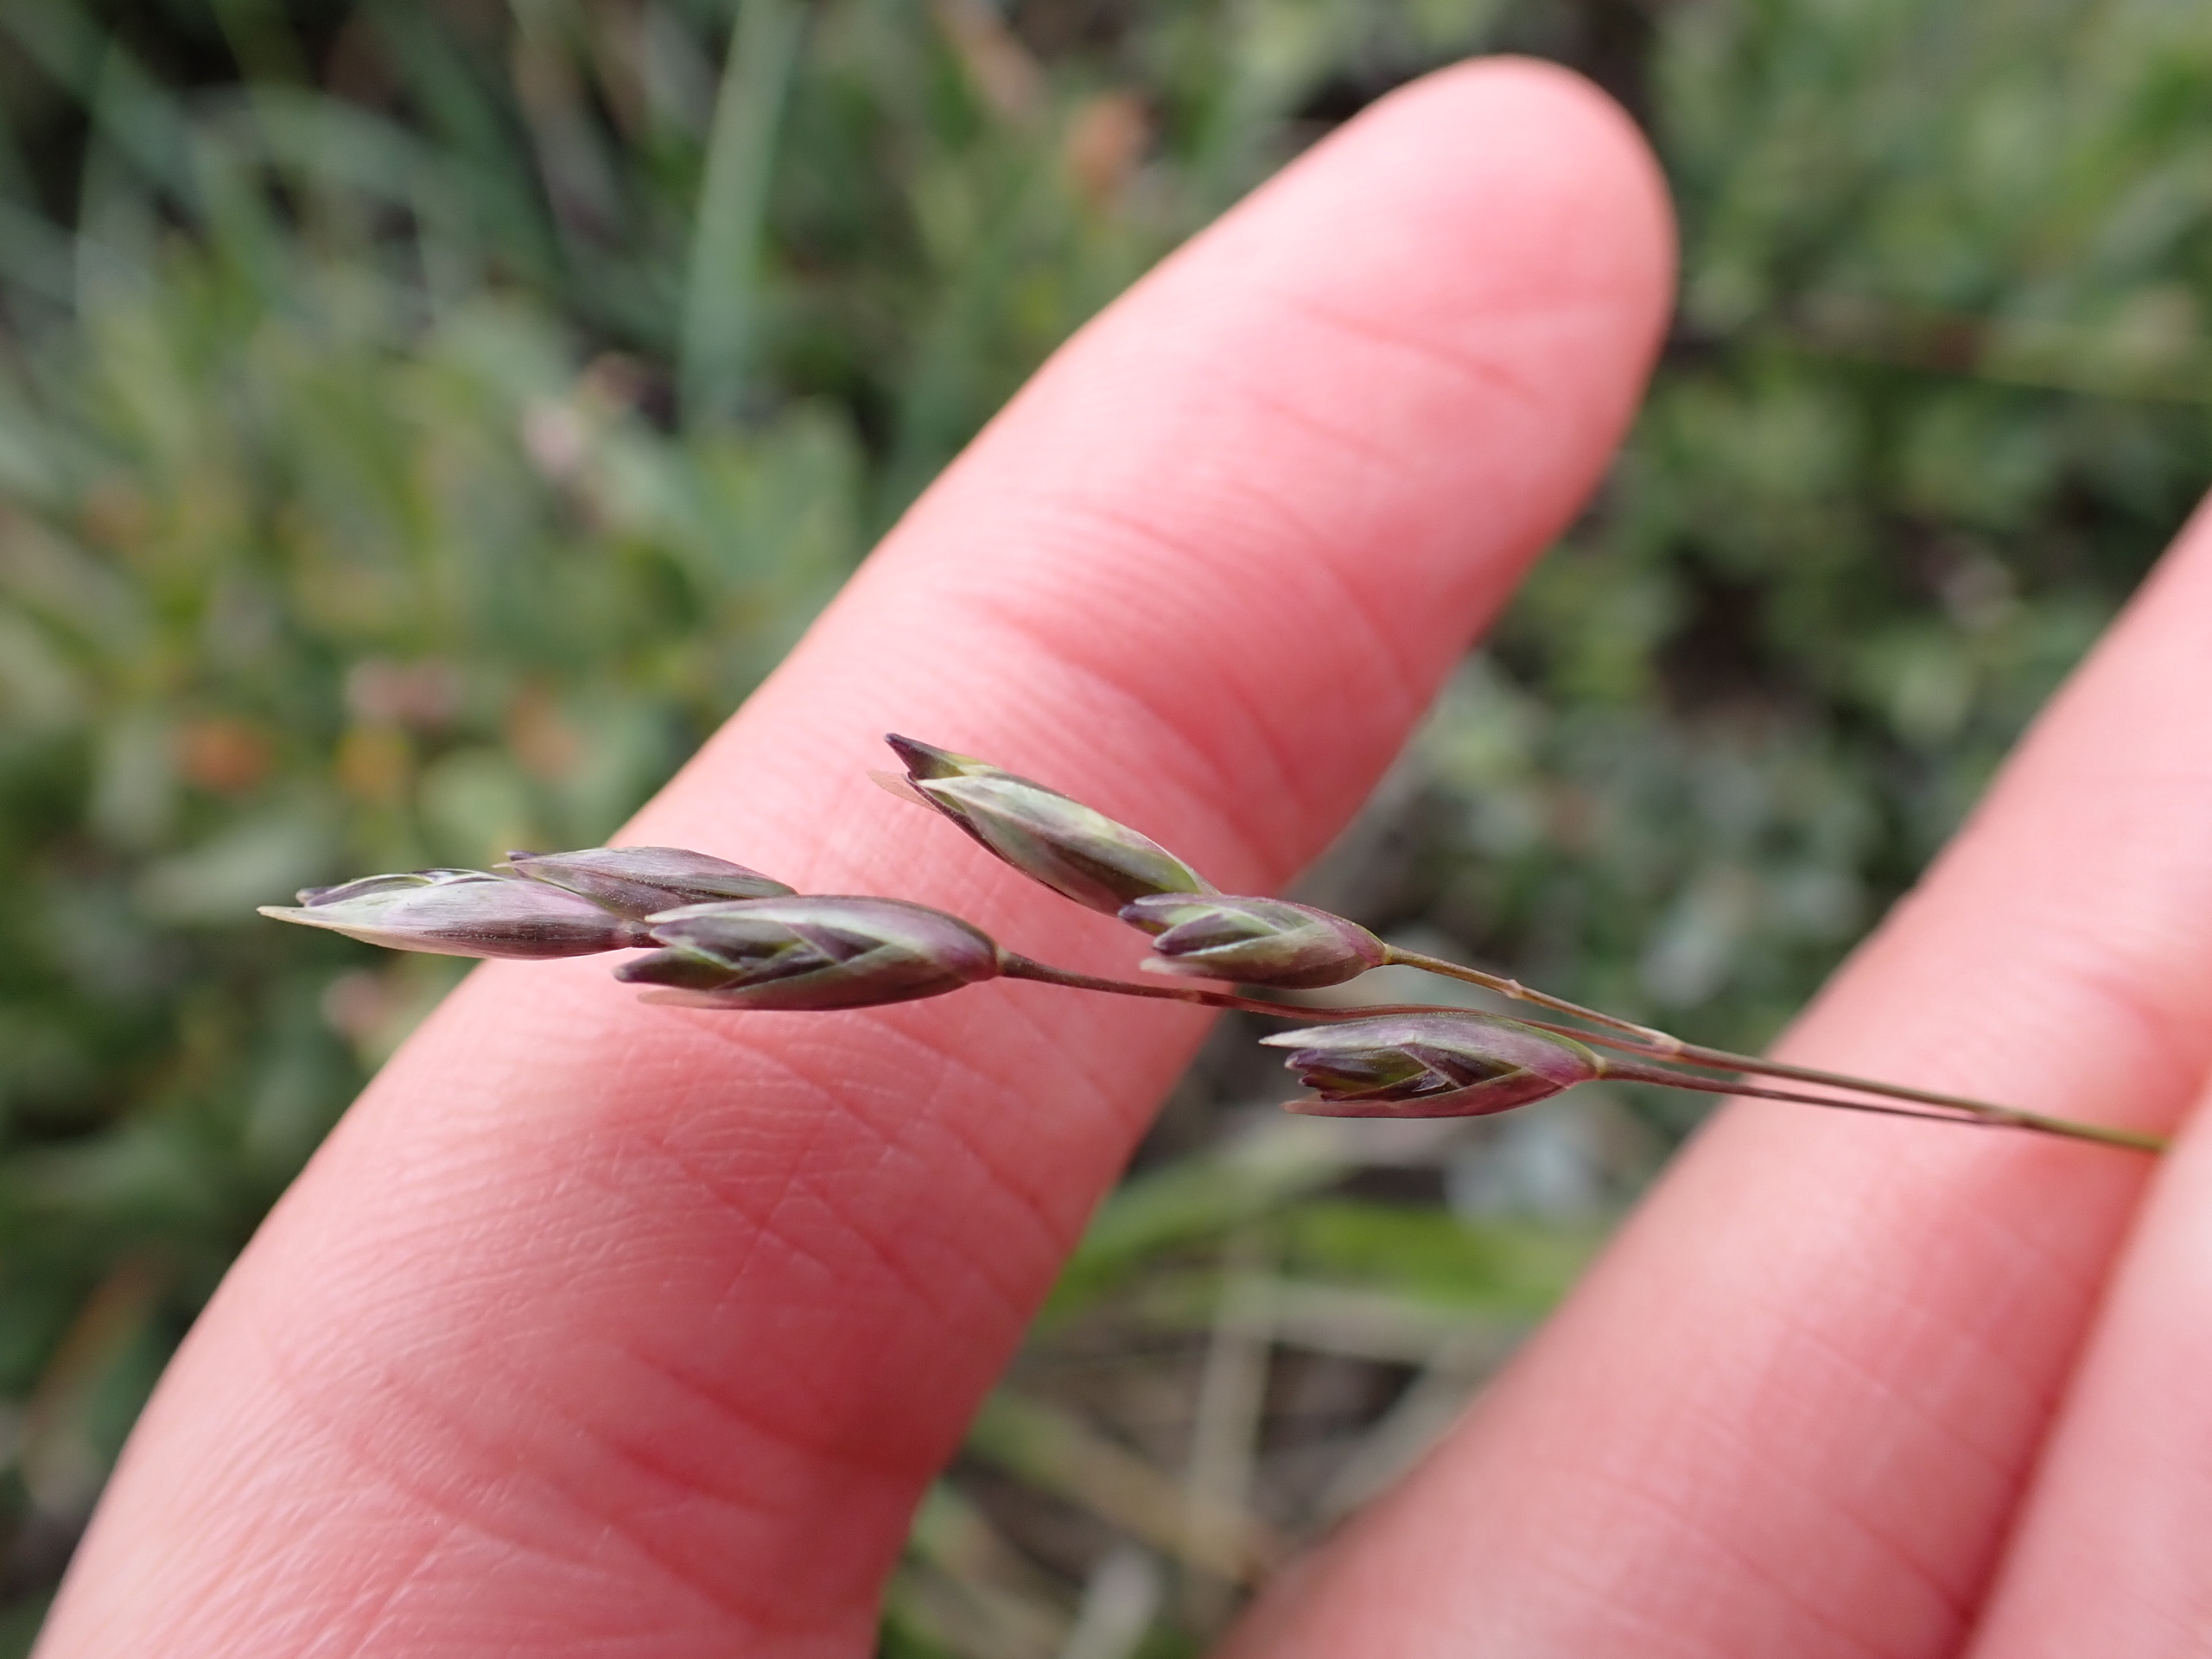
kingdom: Plantae
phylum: Tracheophyta
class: Liliopsida
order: Poales
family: Poaceae
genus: Danthonia
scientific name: Danthonia decumbens
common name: Tandbælg
